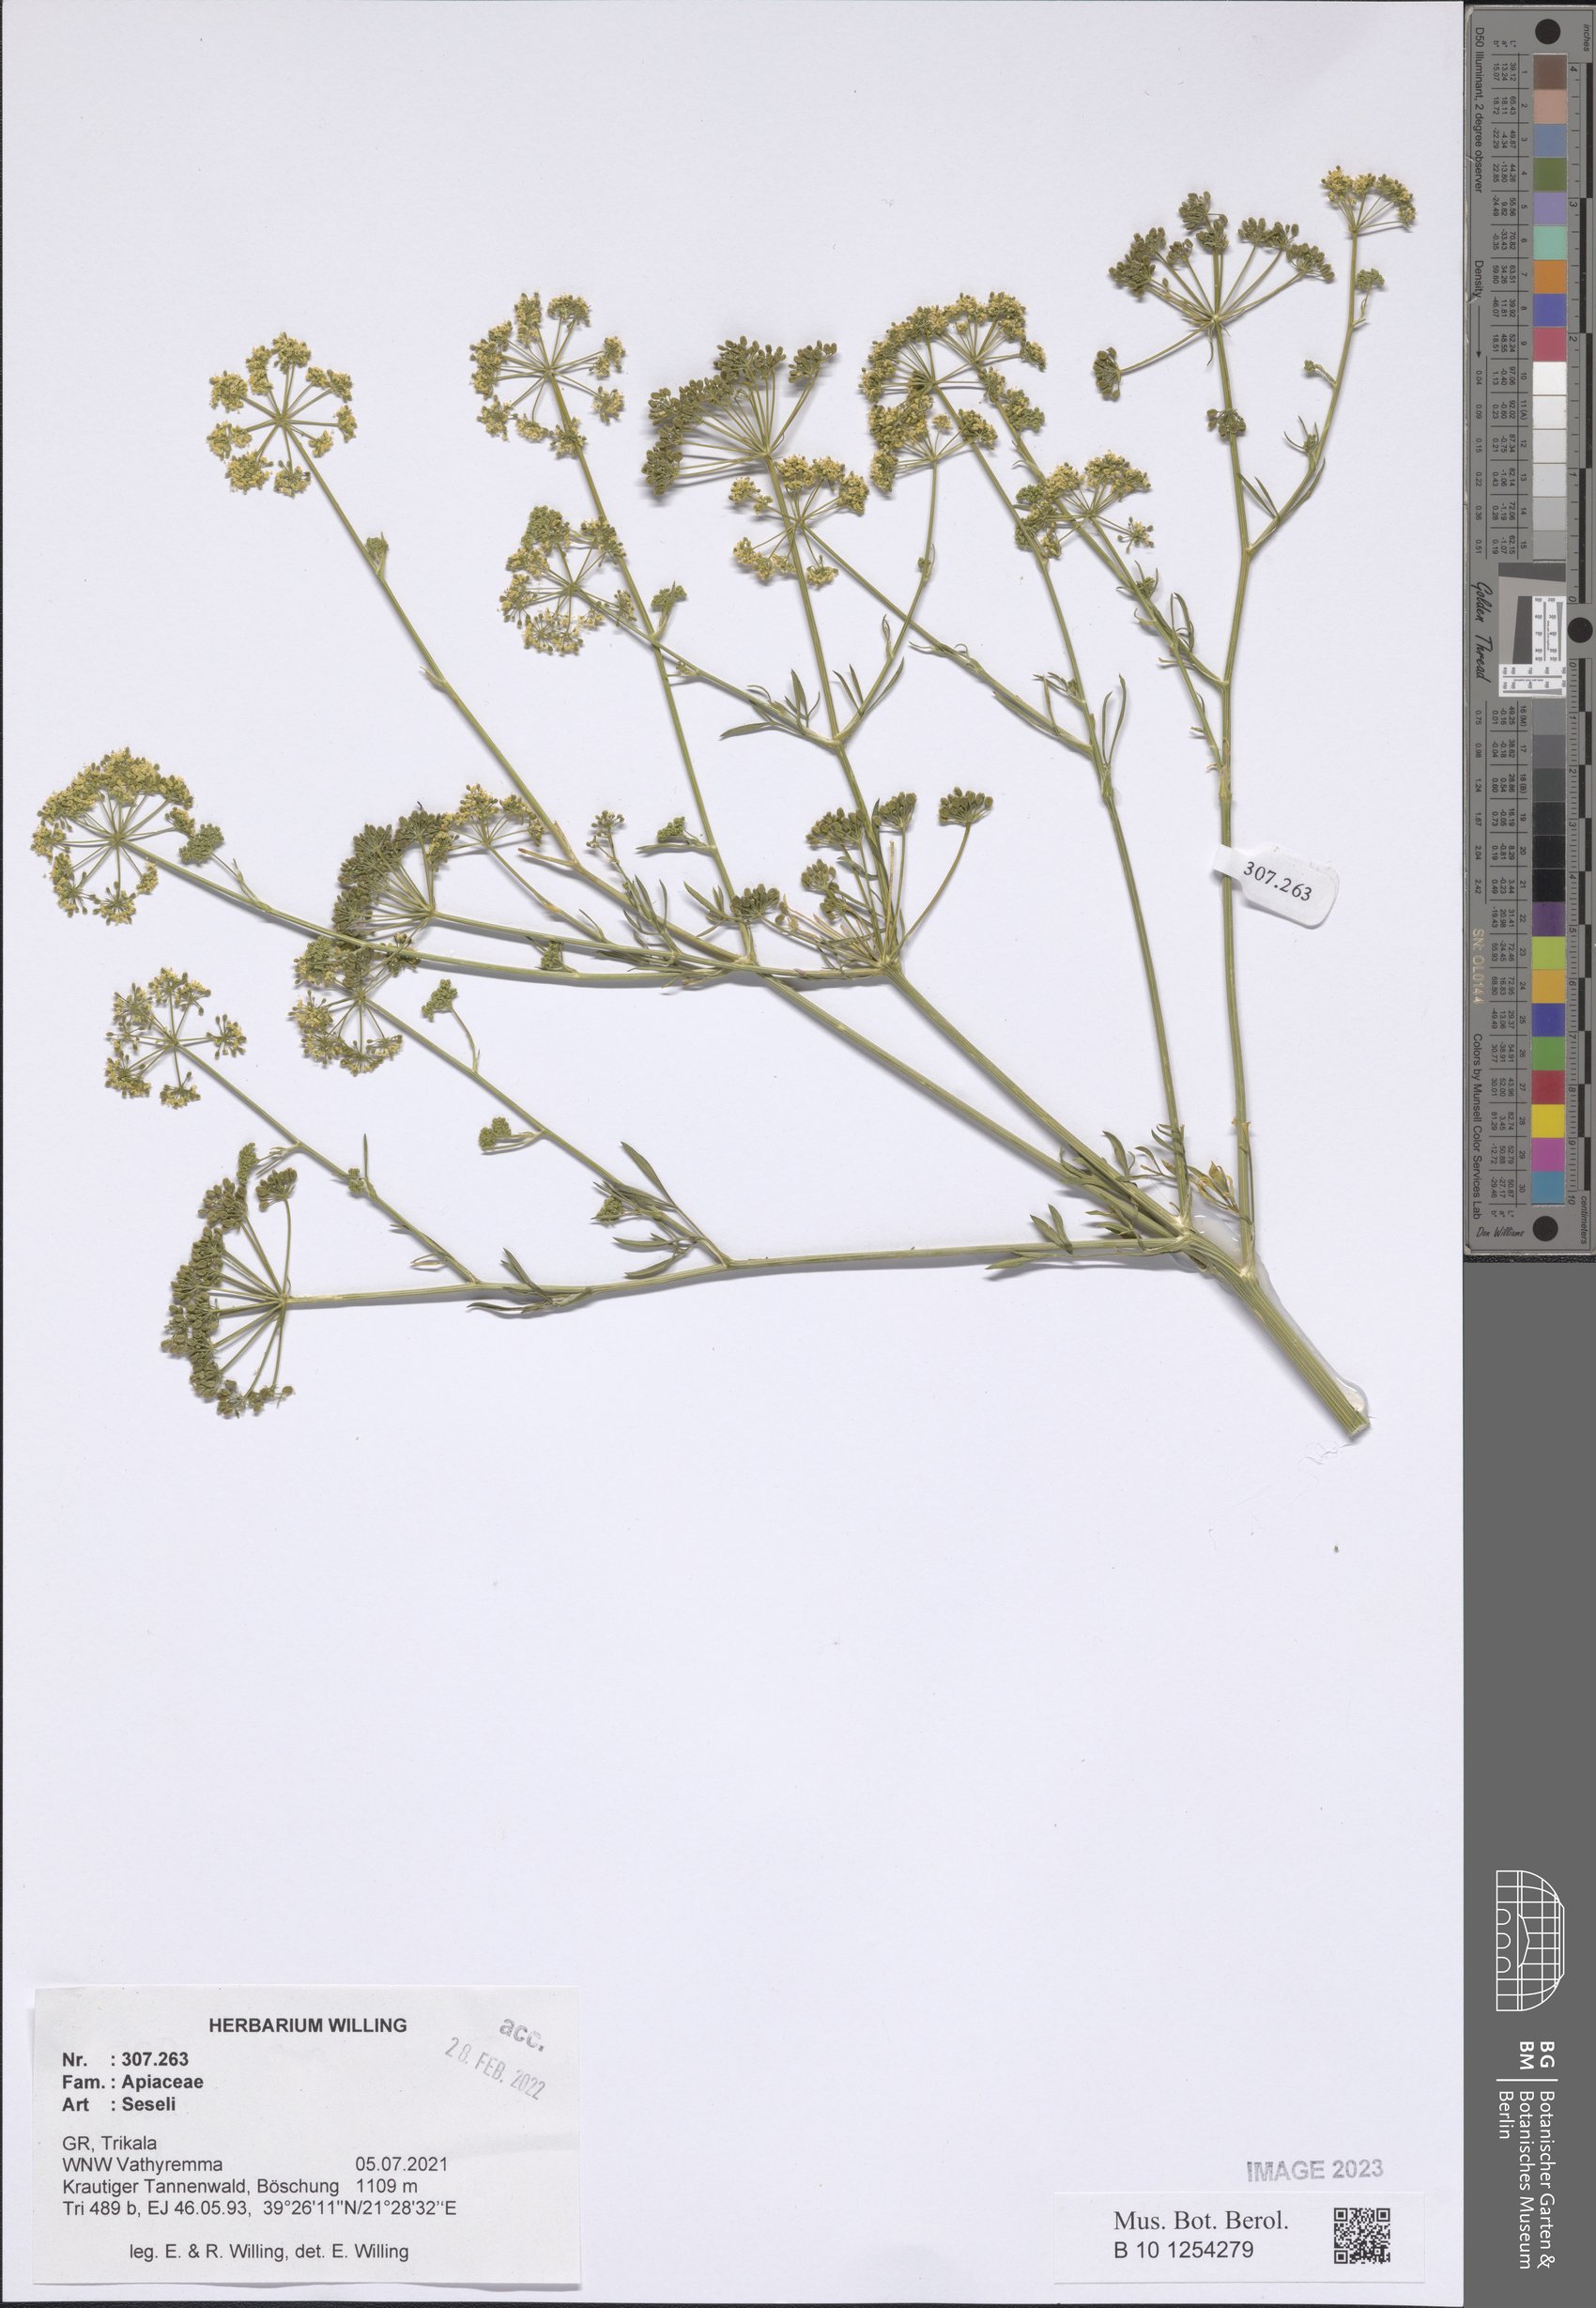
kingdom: Plantae
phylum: Tracheophyta
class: Magnoliopsida
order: Apiales
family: Apiaceae
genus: Seseli
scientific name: Seseli
